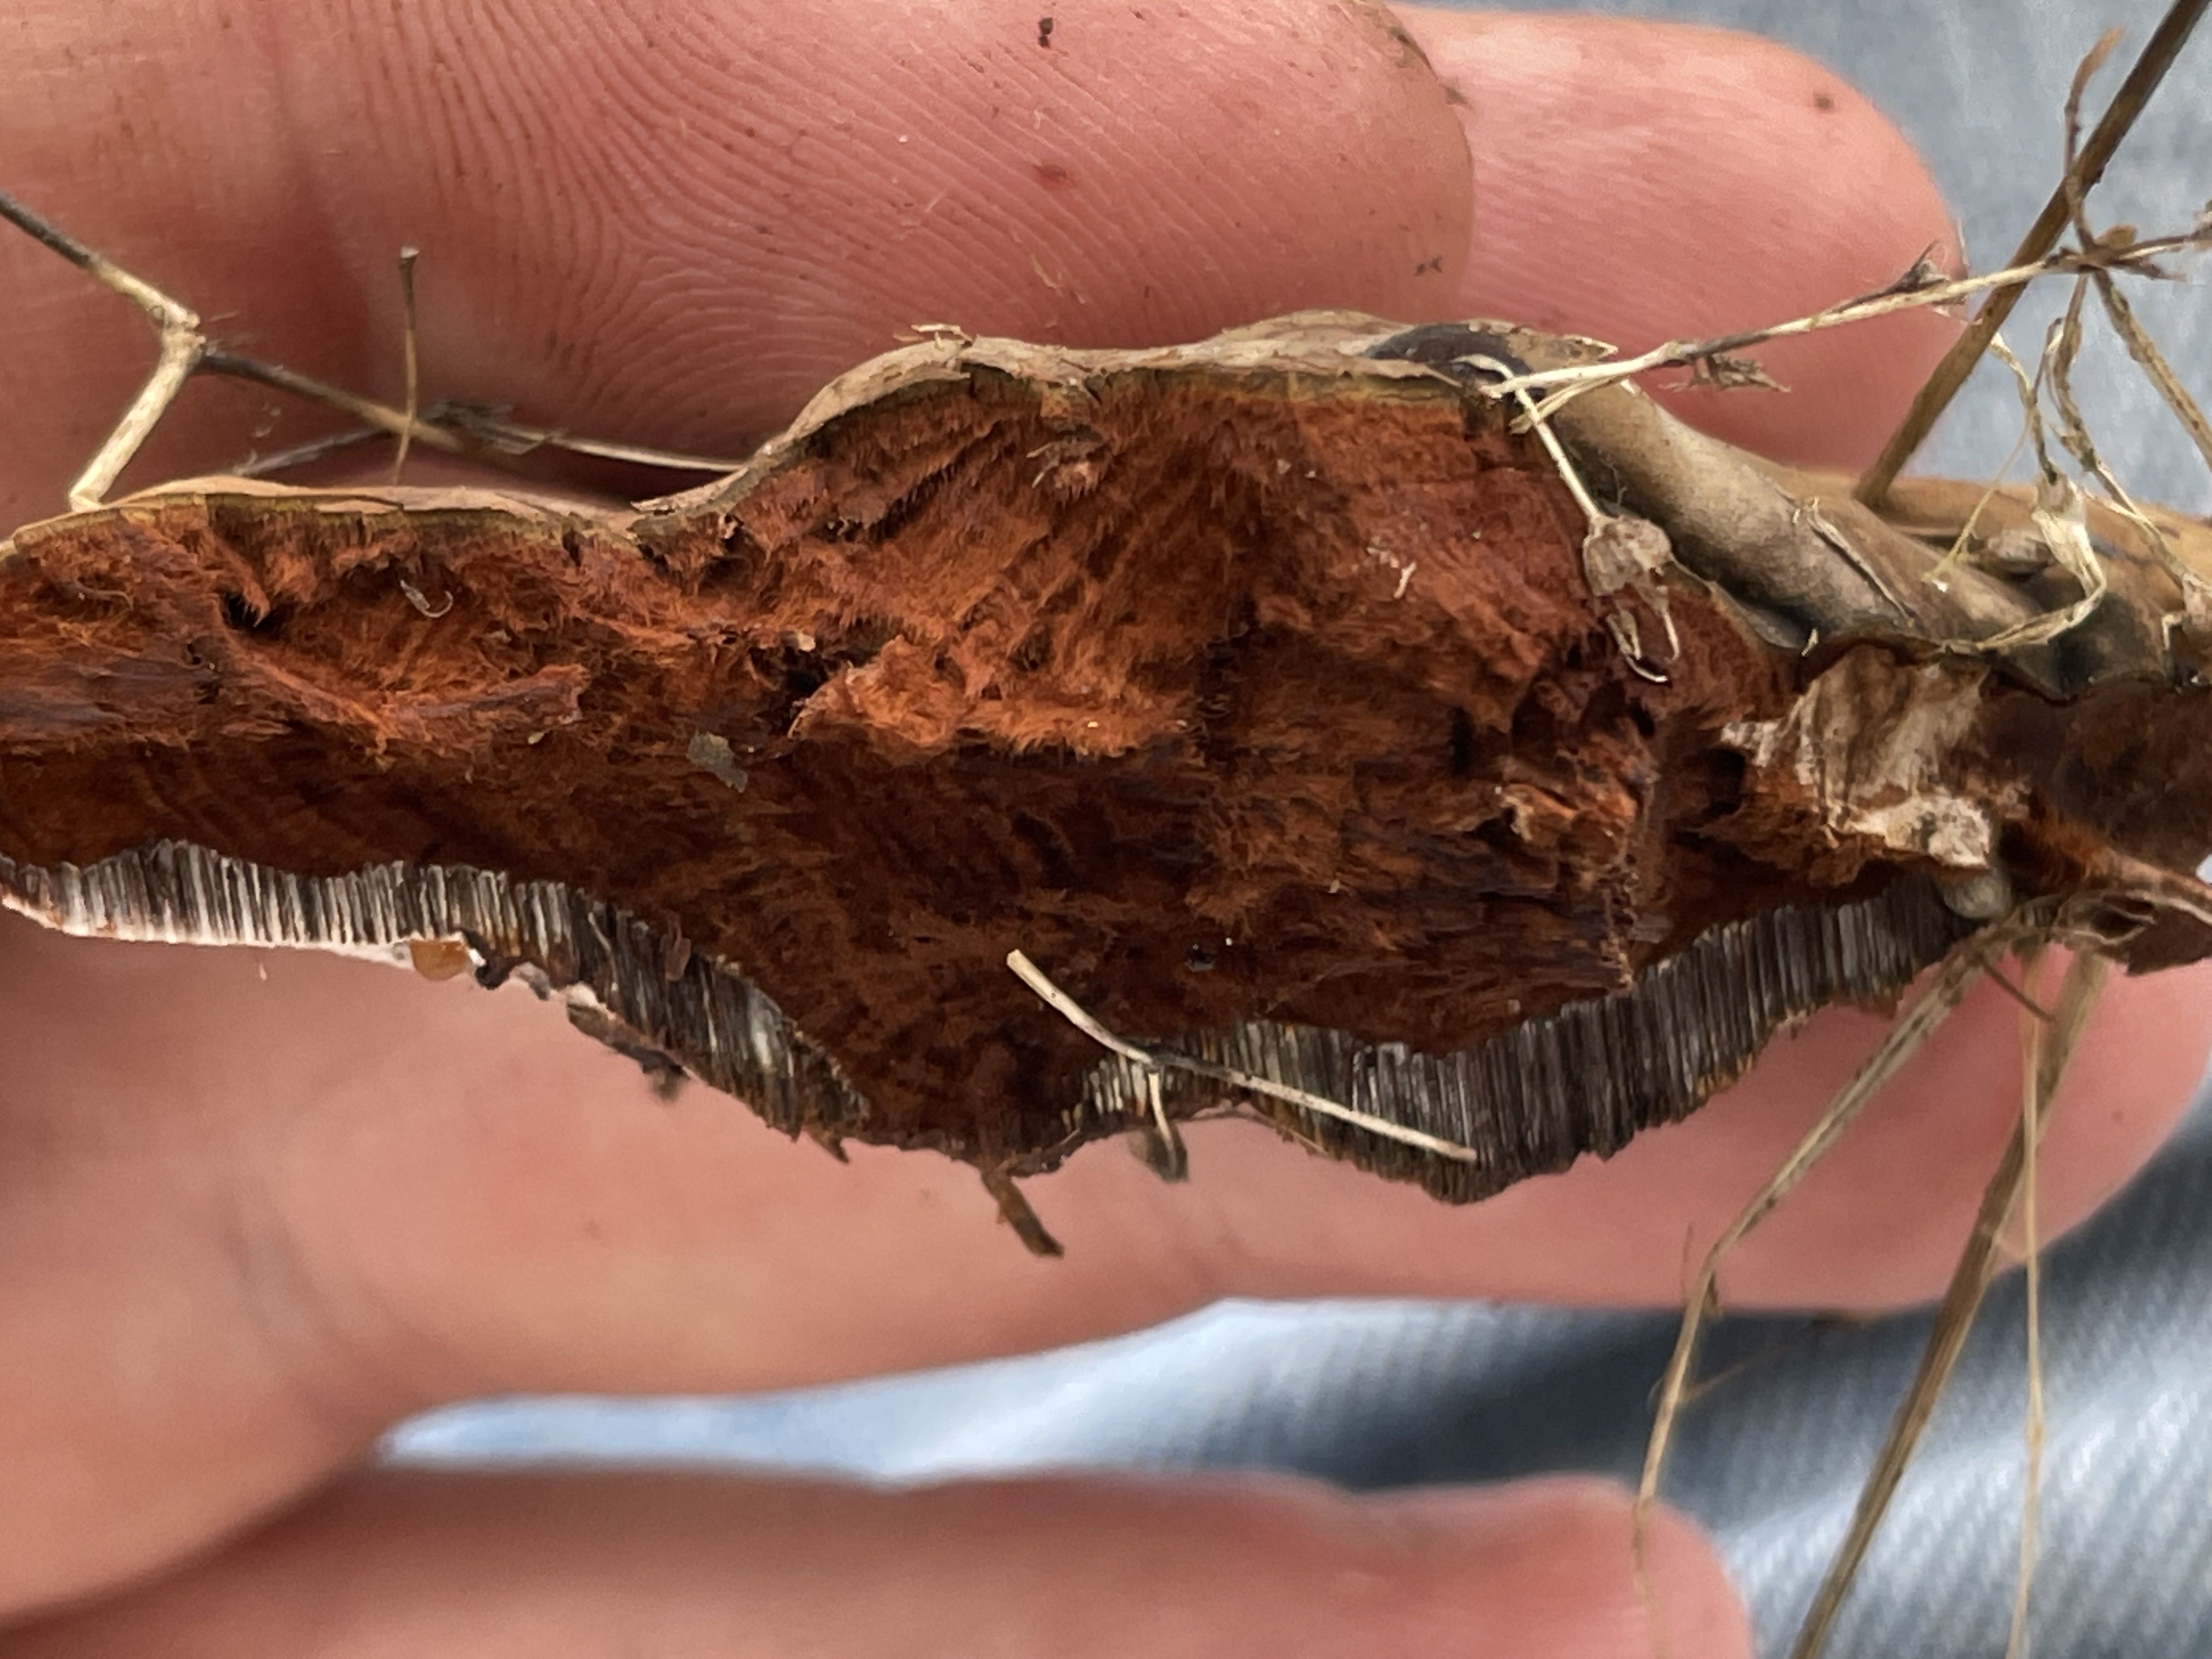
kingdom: Fungi
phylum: Basidiomycota
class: Agaricomycetes
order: Polyporales
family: Polyporaceae
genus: Ganoderma
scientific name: Ganoderma adspersum
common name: grov lakporesvamp
